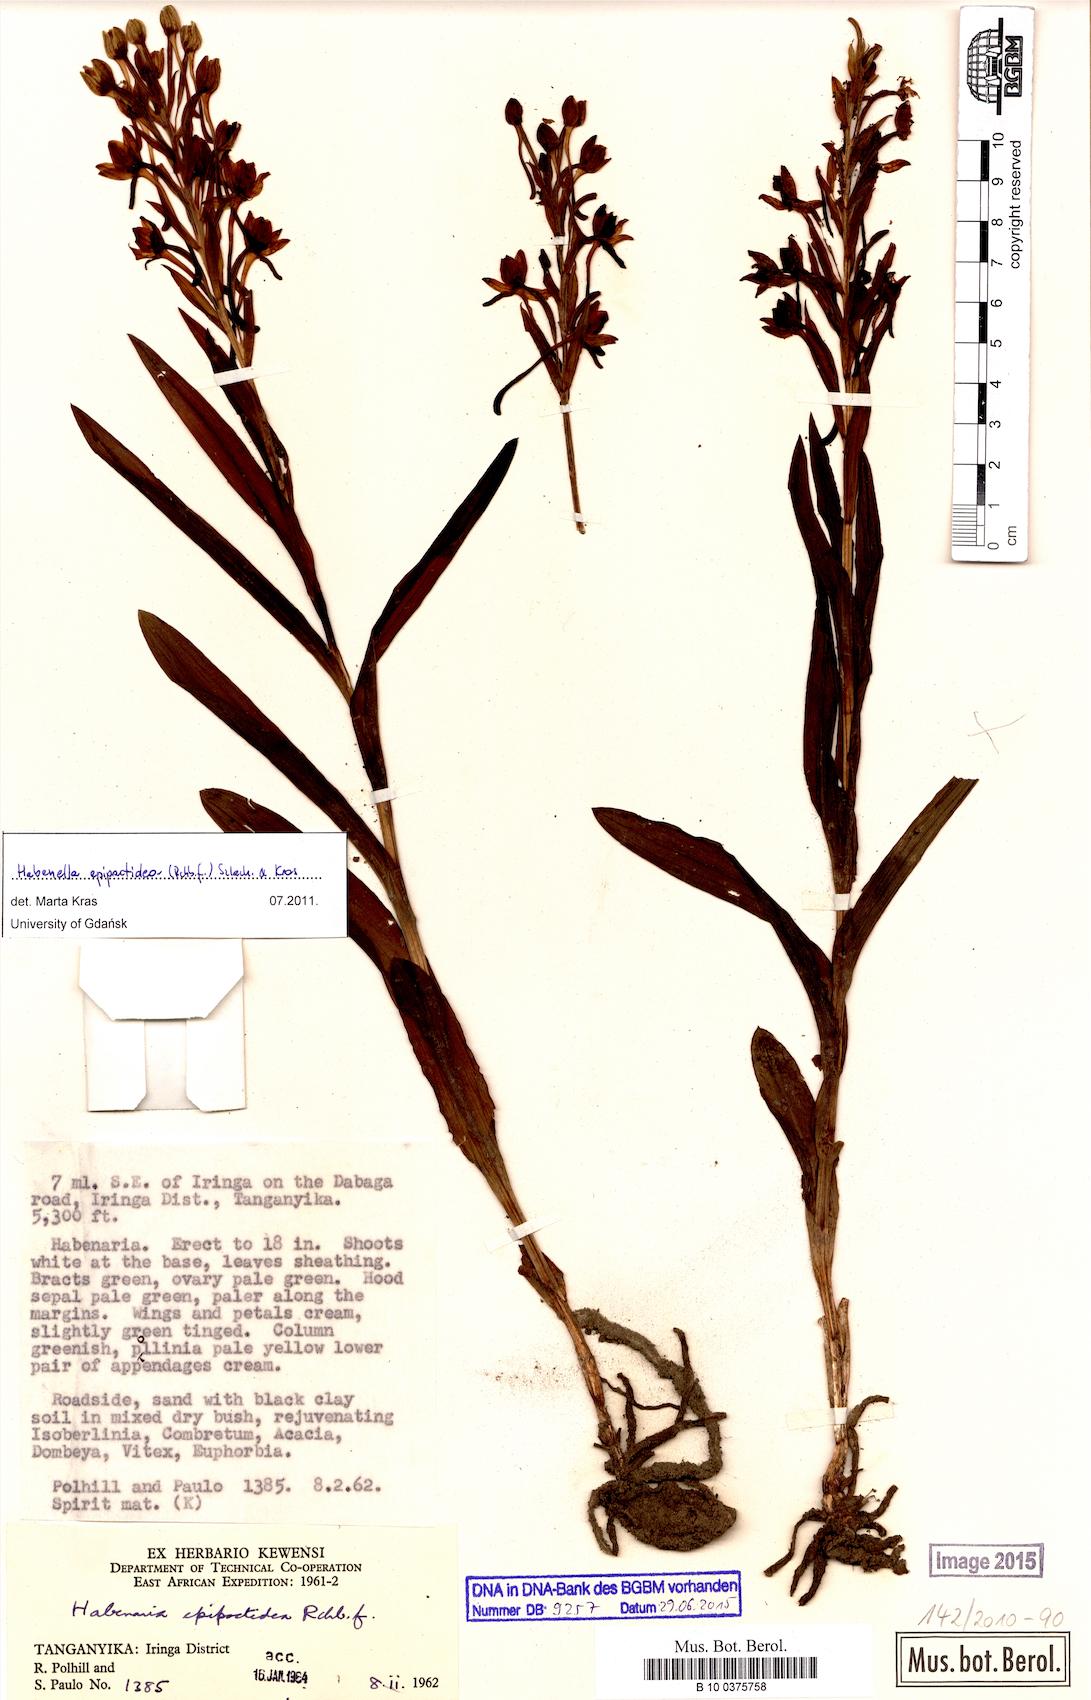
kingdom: Plantae
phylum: Tracheophyta
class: Liliopsida
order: Asparagales
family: Orchidaceae
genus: Habenaria
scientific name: Habenaria epipactidea
